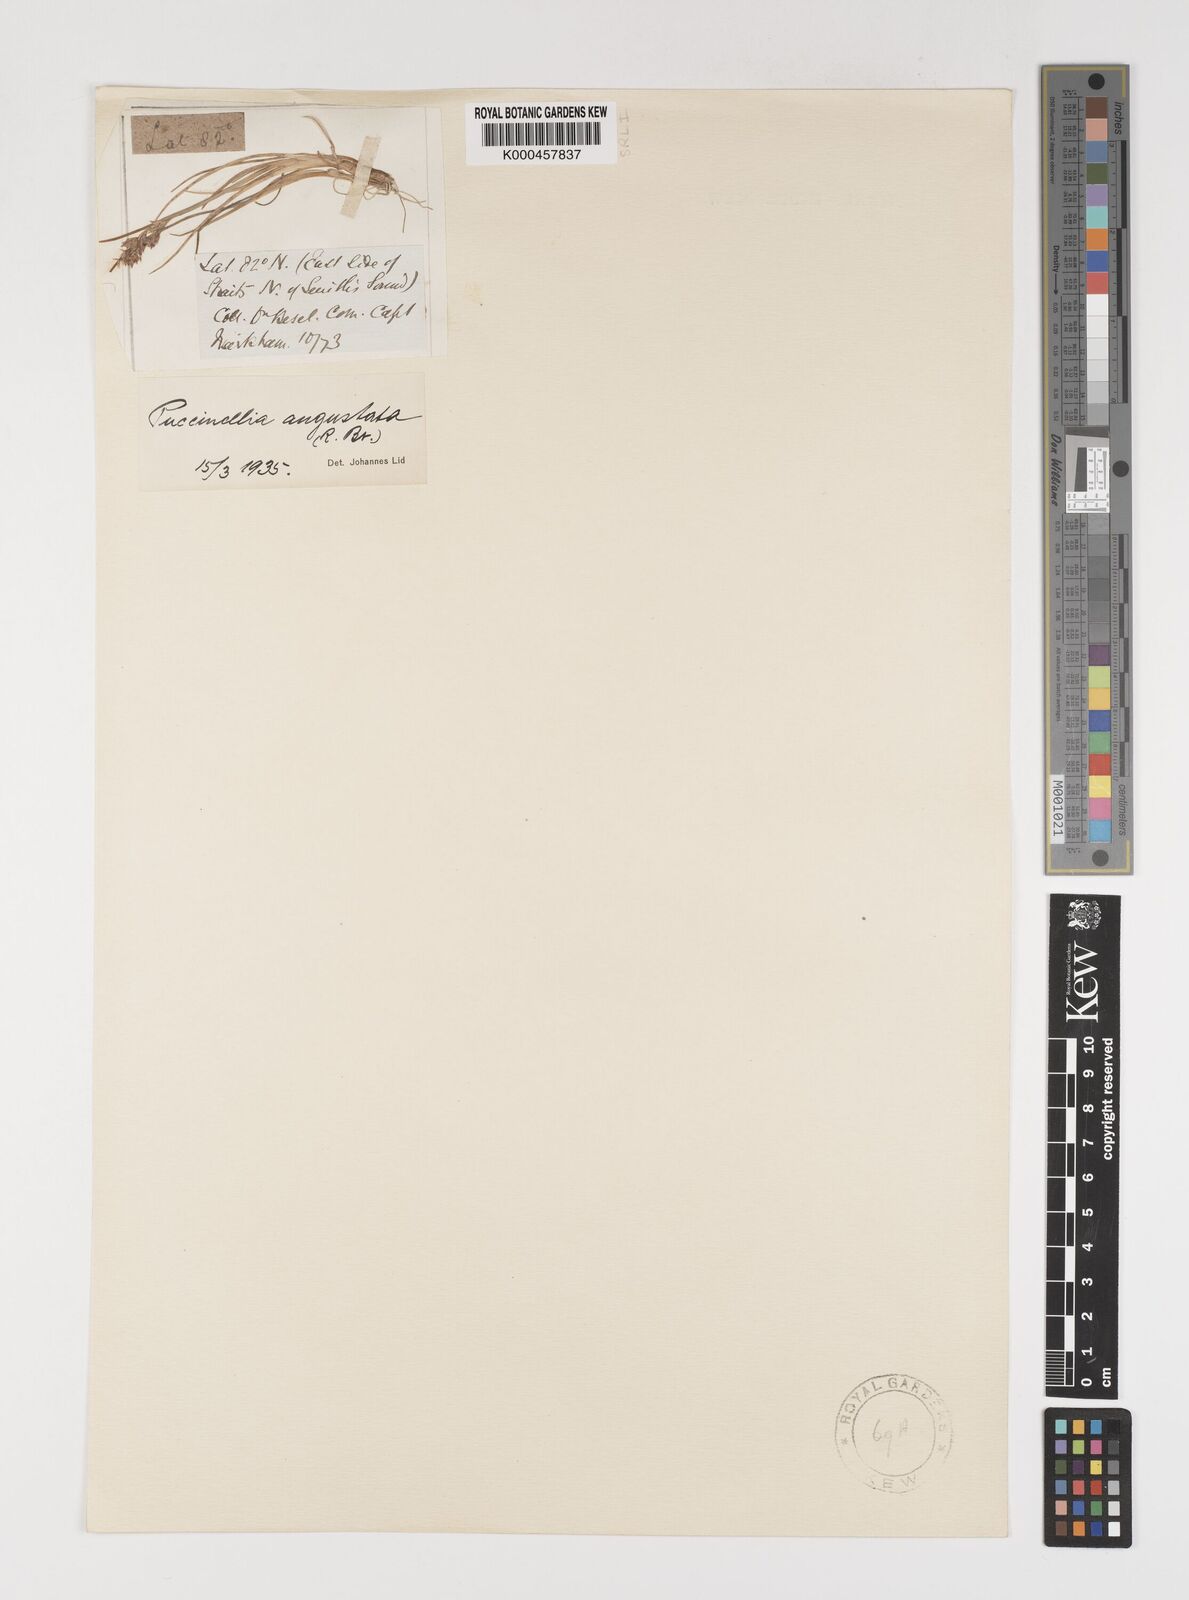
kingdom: Plantae
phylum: Tracheophyta
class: Liliopsida
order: Poales
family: Poaceae
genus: Puccinellia
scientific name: Puccinellia angustata
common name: Narrow alkaligrass
